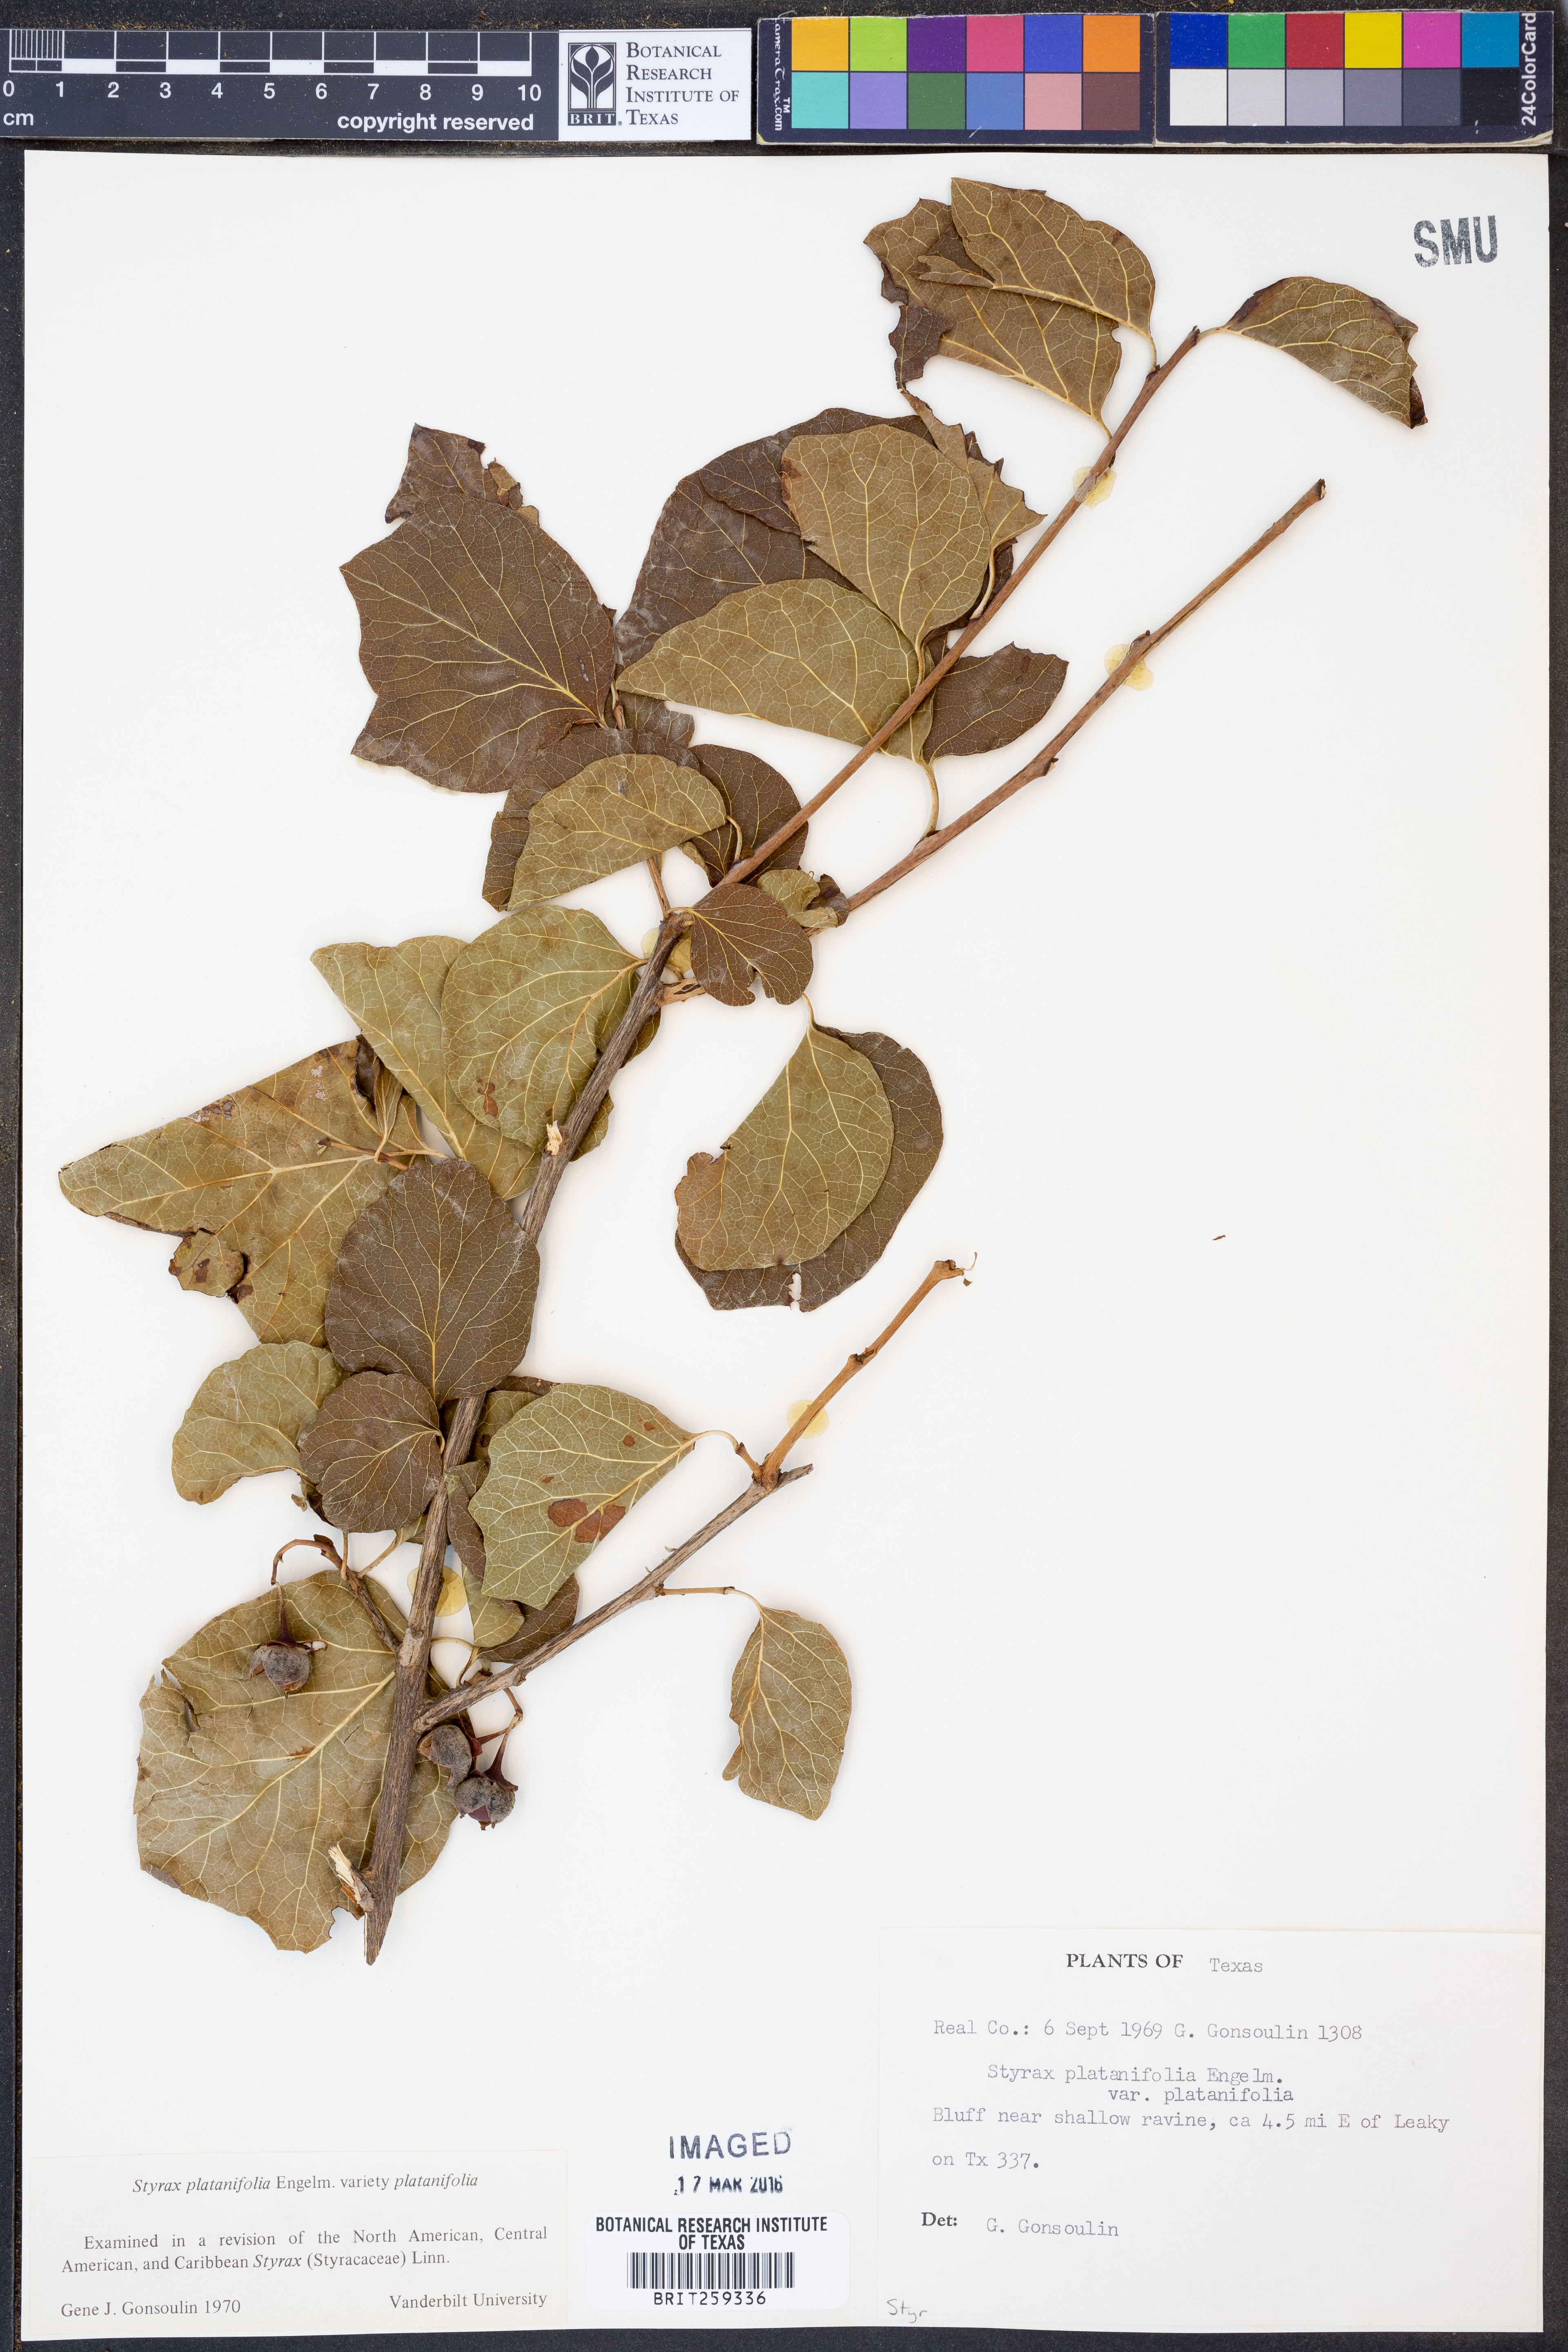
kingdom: Plantae
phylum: Tracheophyta
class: Magnoliopsida
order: Ericales
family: Styracaceae
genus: Styrax
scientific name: Styrax platanifolius
